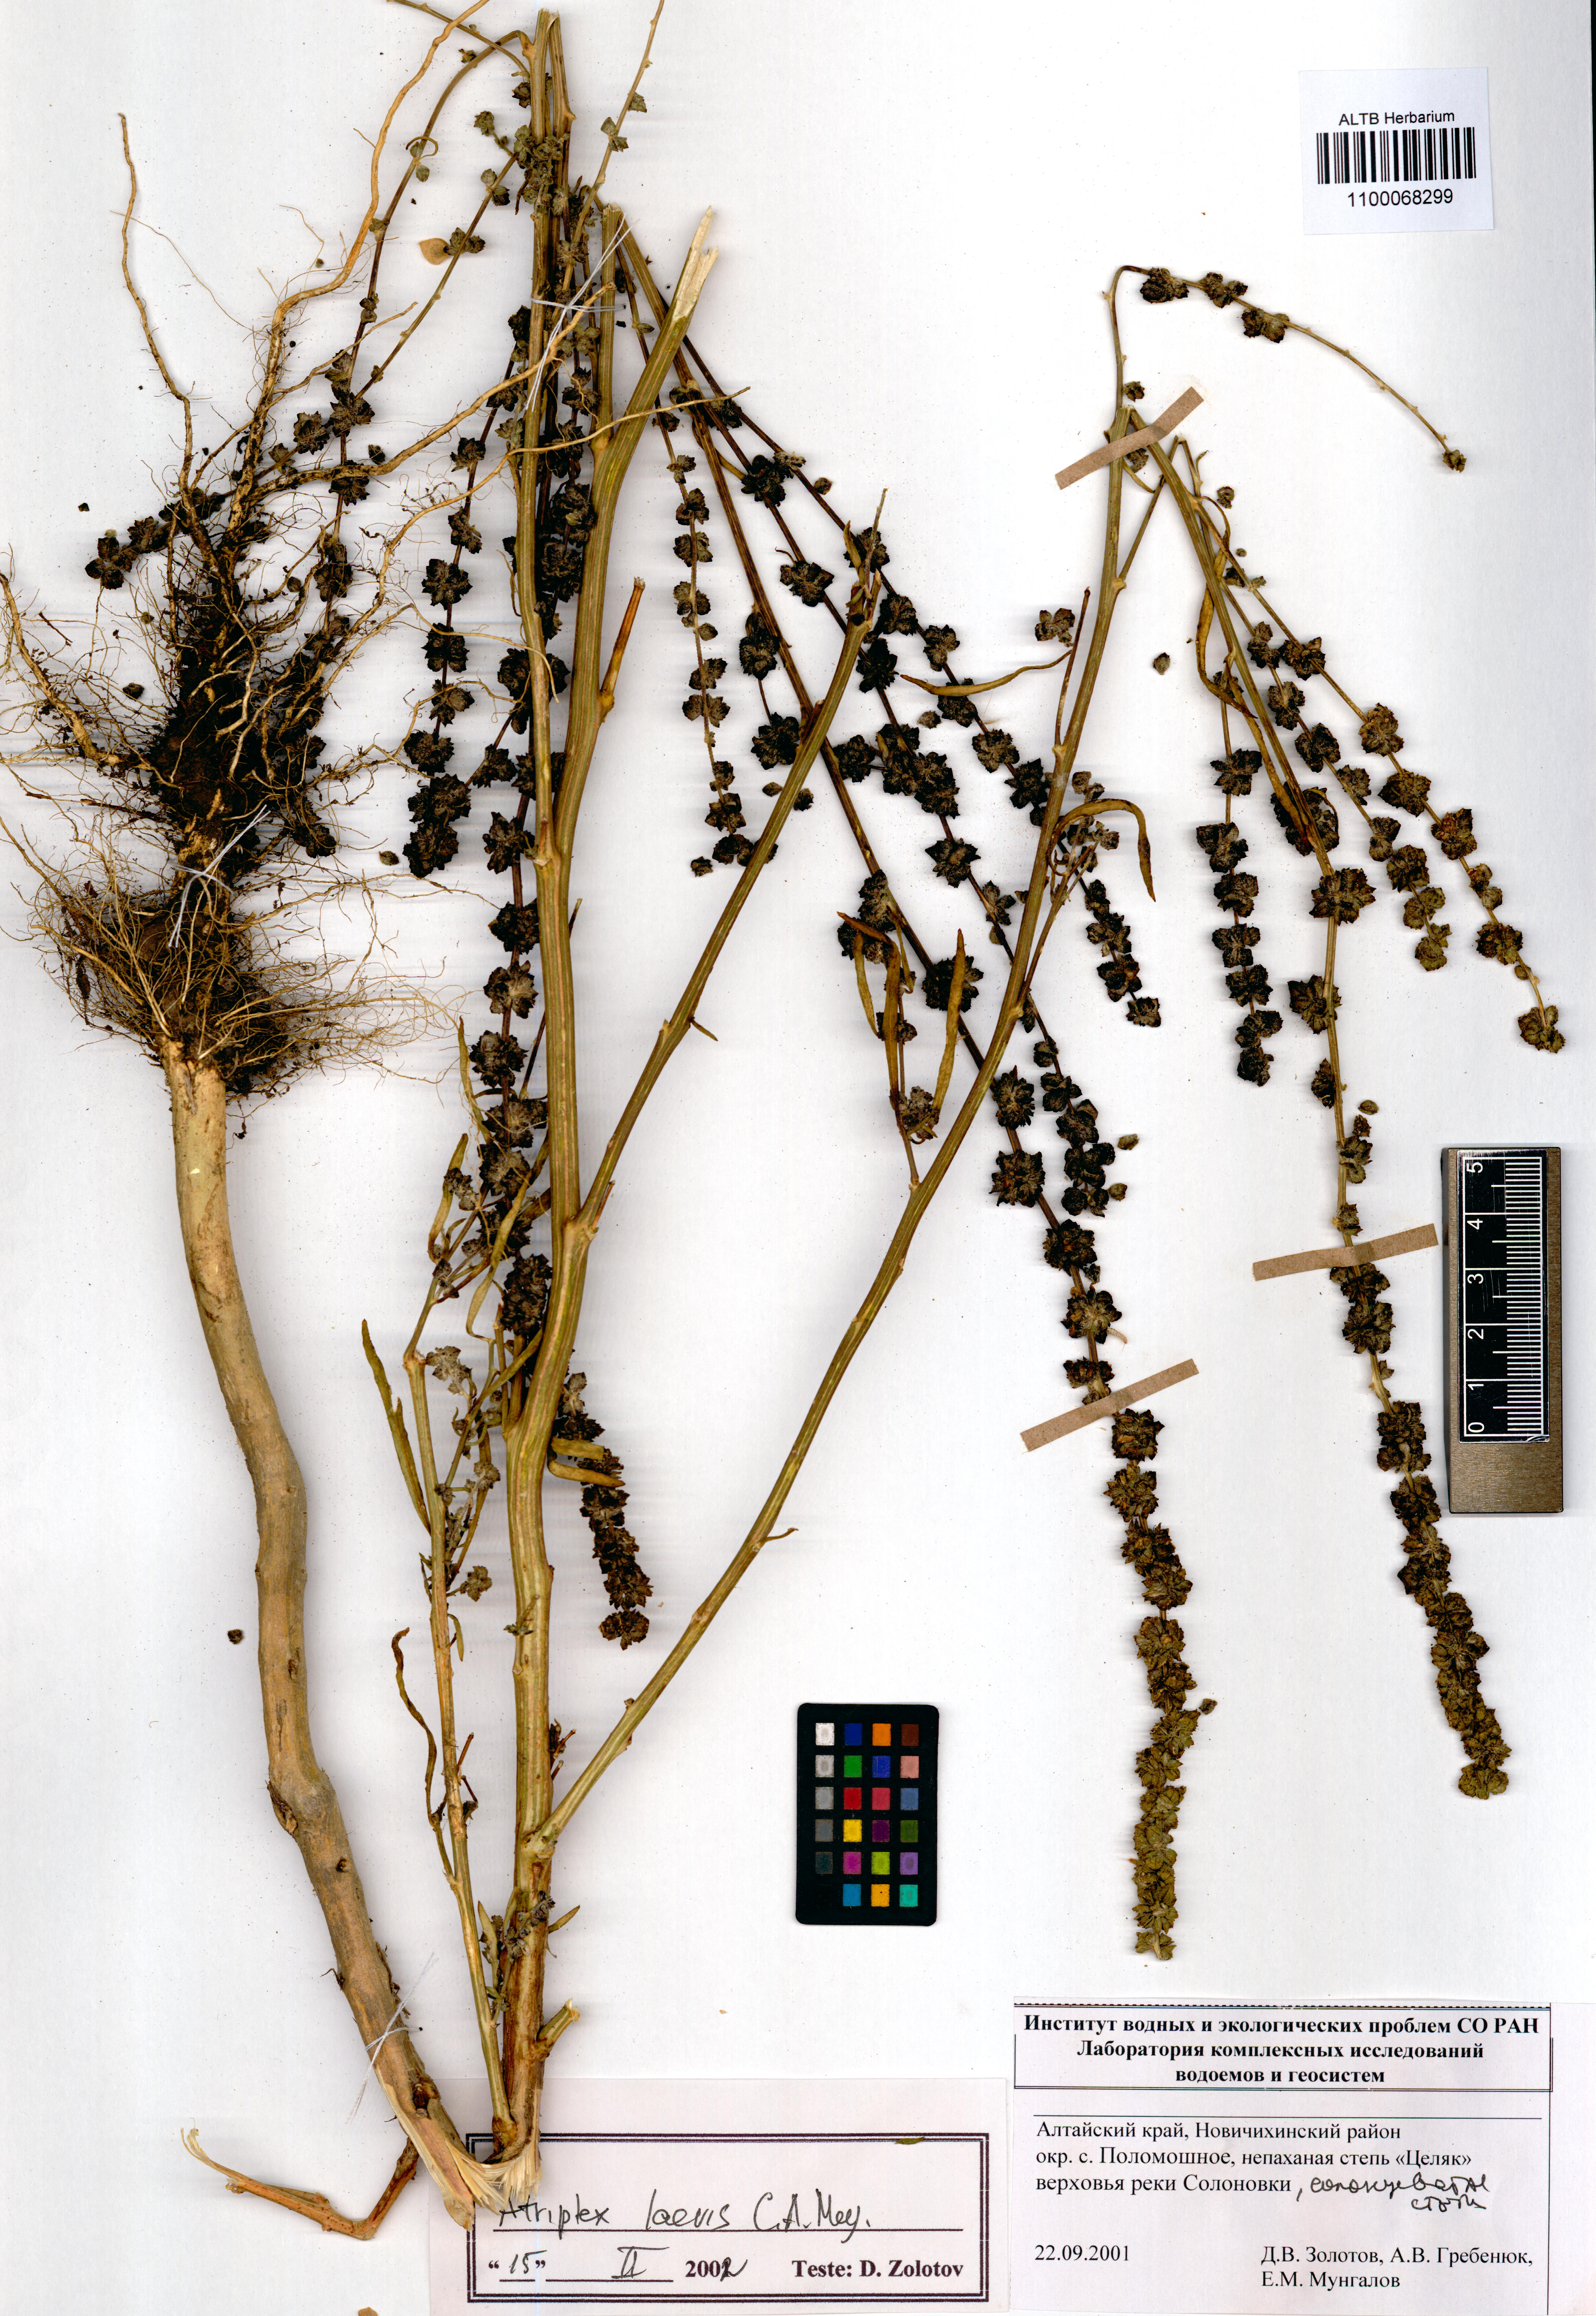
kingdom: Plantae
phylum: Tracheophyta
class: Magnoliopsida
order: Caryophyllales
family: Amaranthaceae
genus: Atriplex
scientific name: Atriplex laevis
